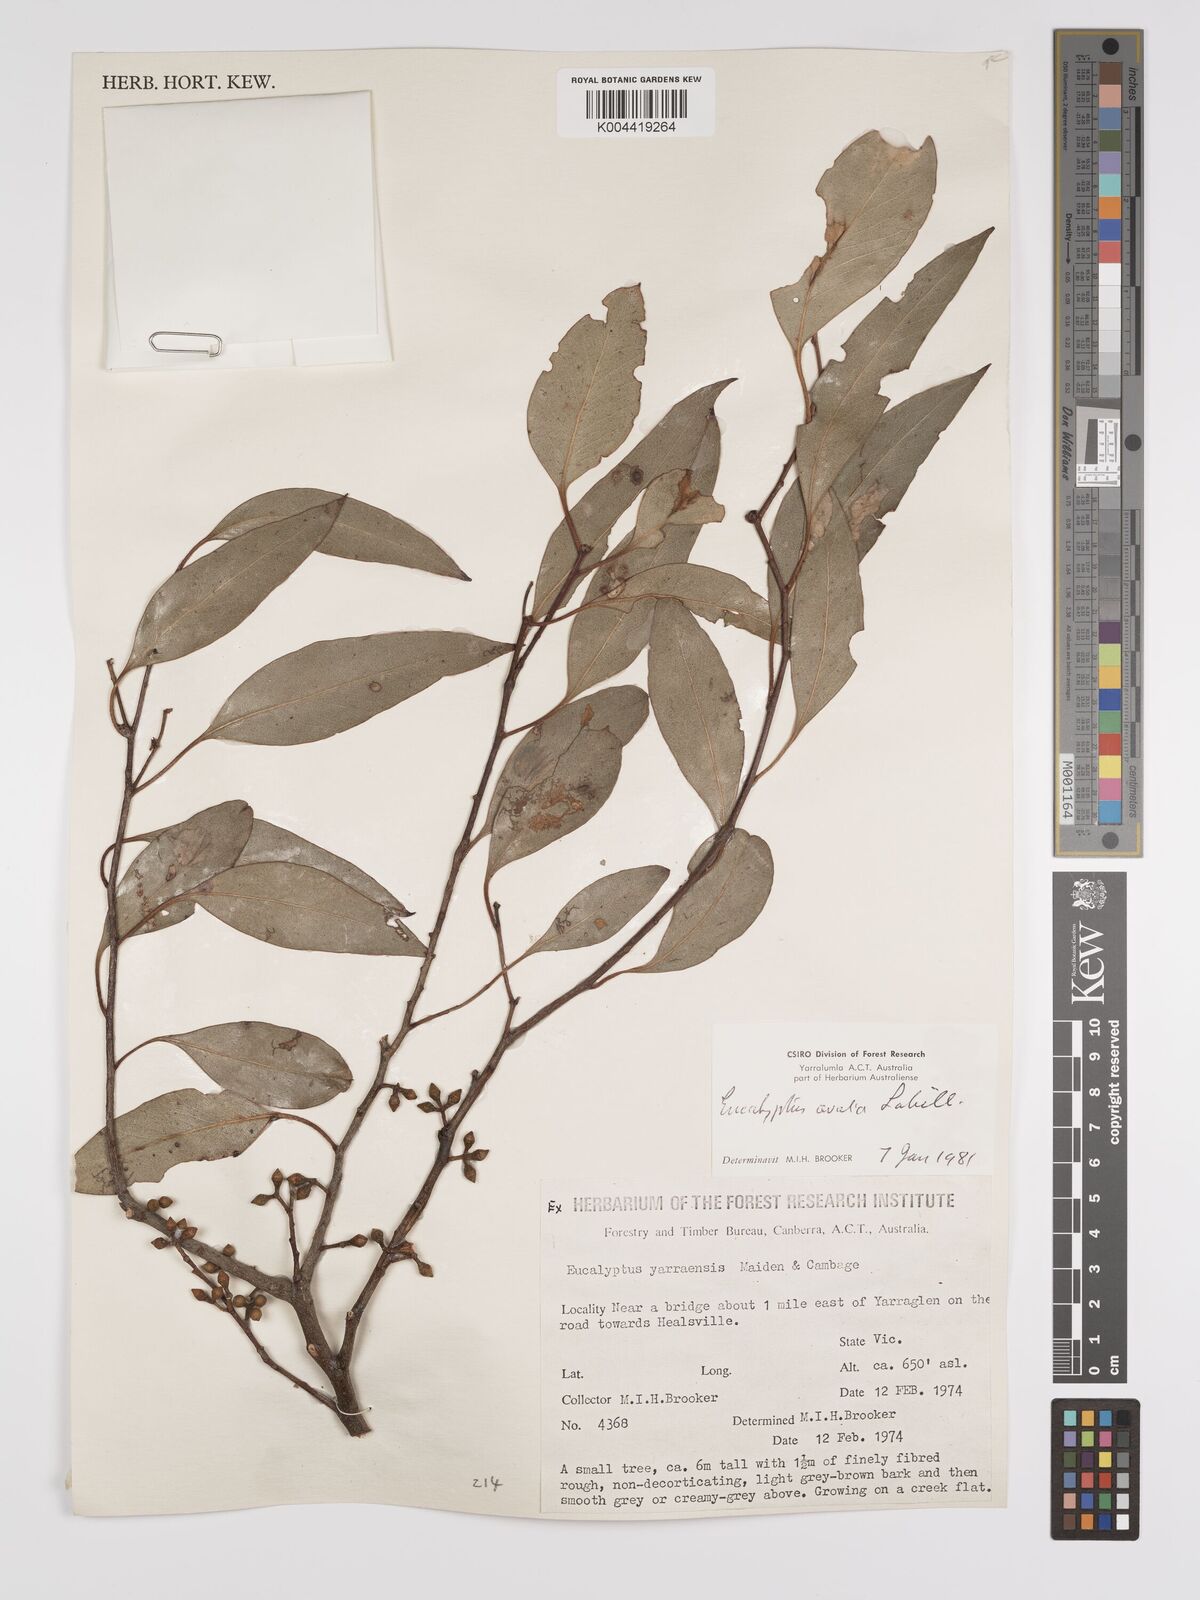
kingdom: Plantae
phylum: Tracheophyta
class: Magnoliopsida
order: Myrtales
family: Myrtaceae
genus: Eucalyptus
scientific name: Eucalyptus ovata
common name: Black-gum
